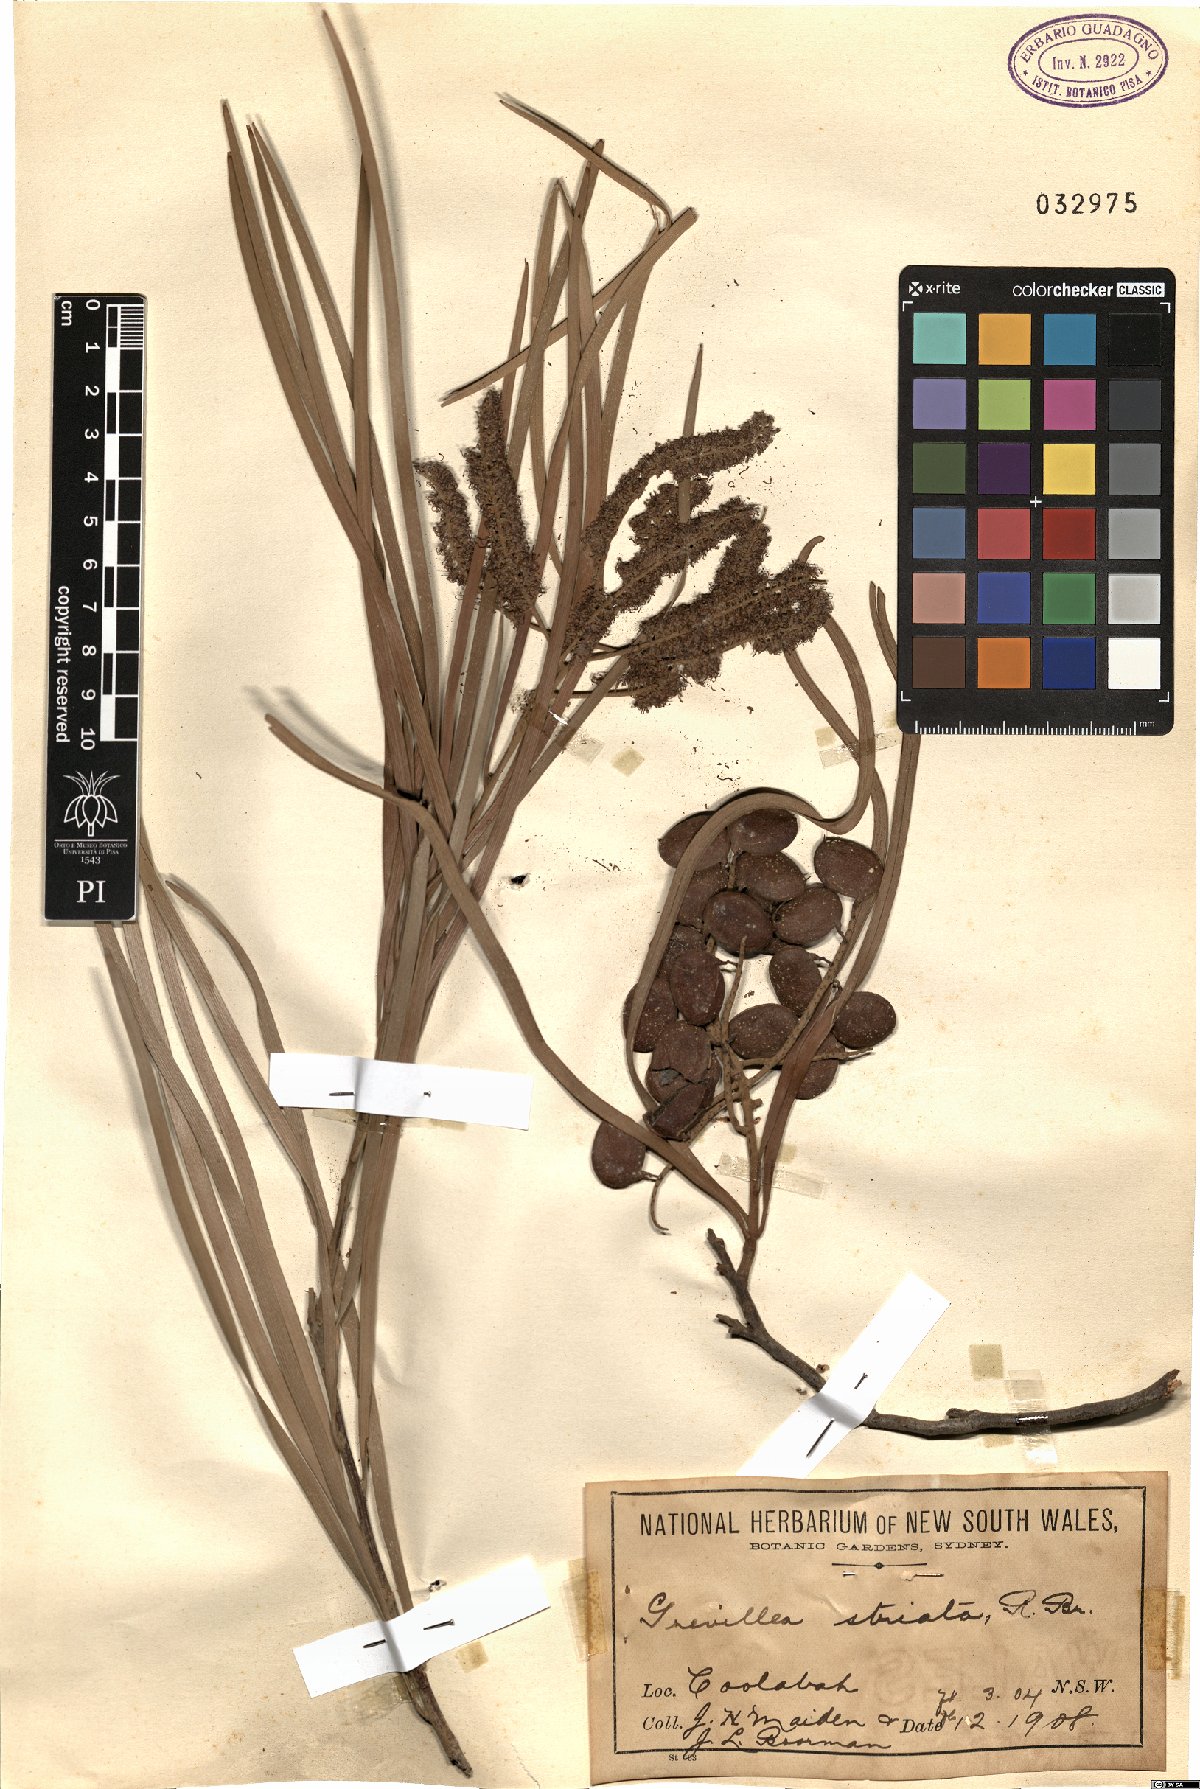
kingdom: Plantae
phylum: Tracheophyta
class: Magnoliopsida
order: Proteales
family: Proteaceae
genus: Grevillea
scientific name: Grevillea striata
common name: Beefwood
